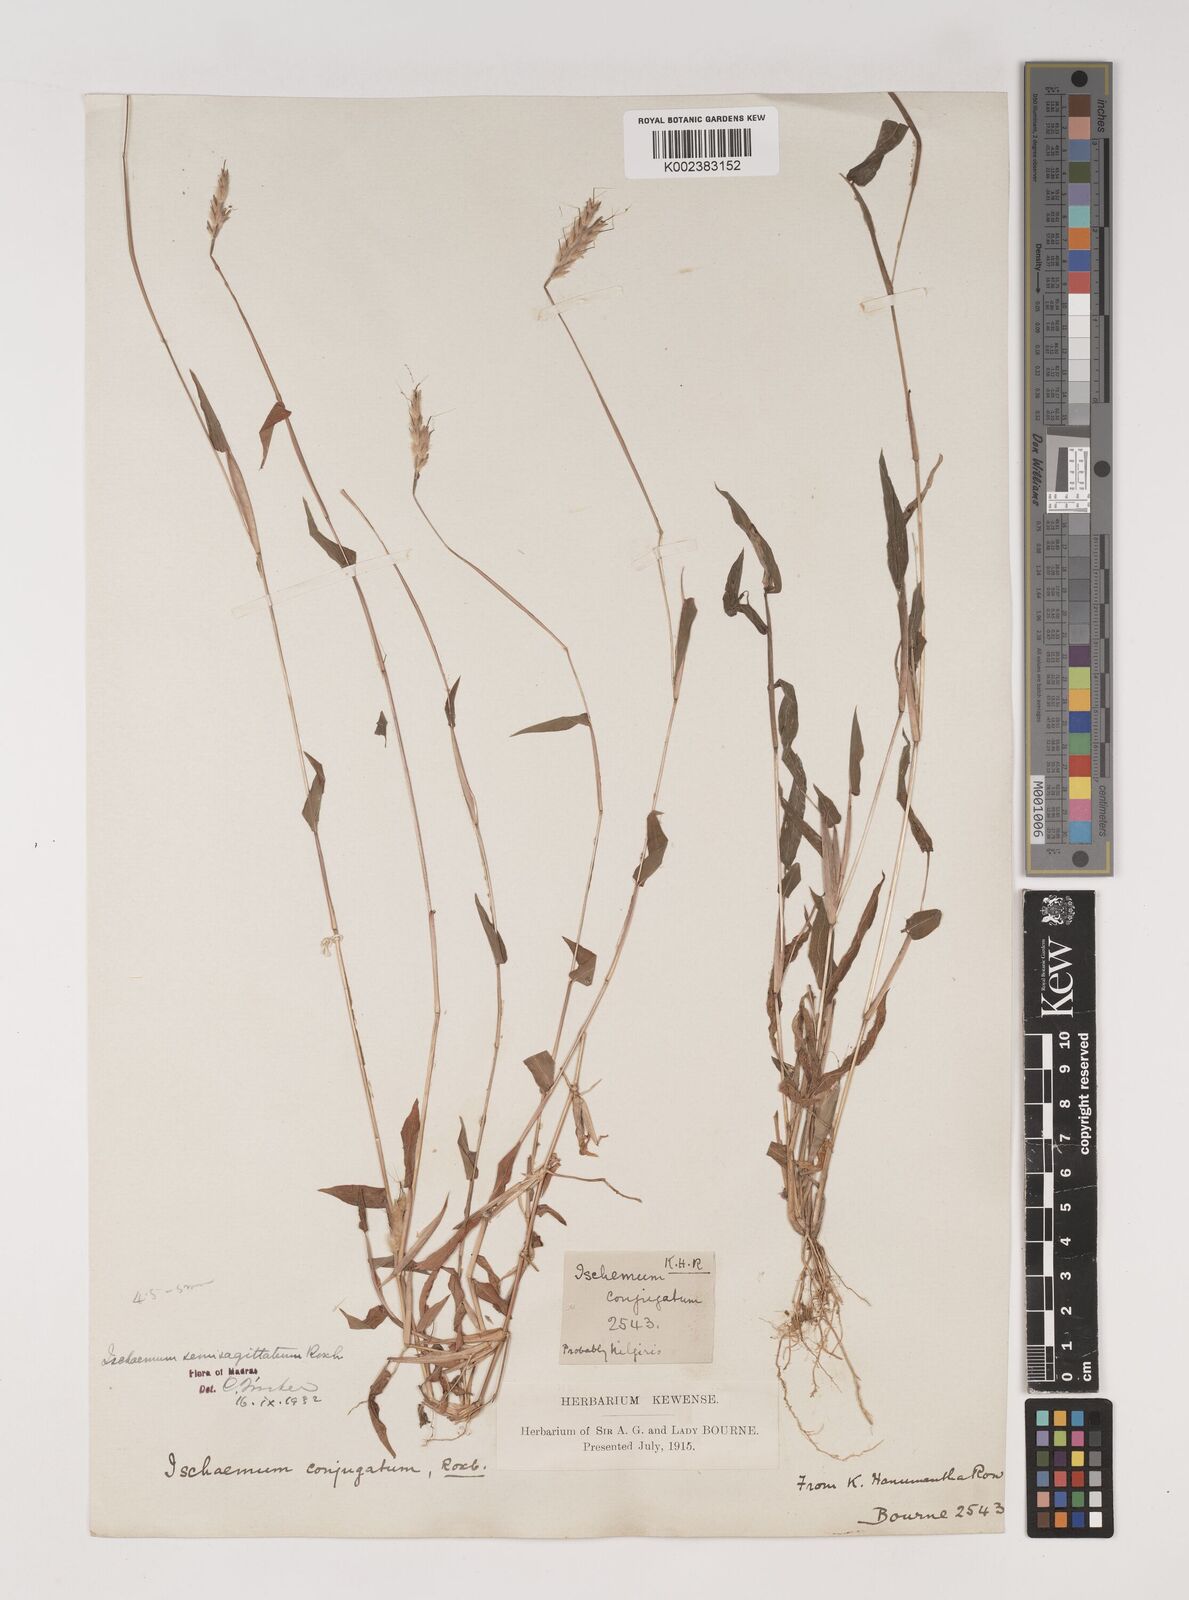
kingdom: Plantae
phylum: Tracheophyta
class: Liliopsida
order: Poales
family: Poaceae
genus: Ischaemum
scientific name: Ischaemum semisagittatum
